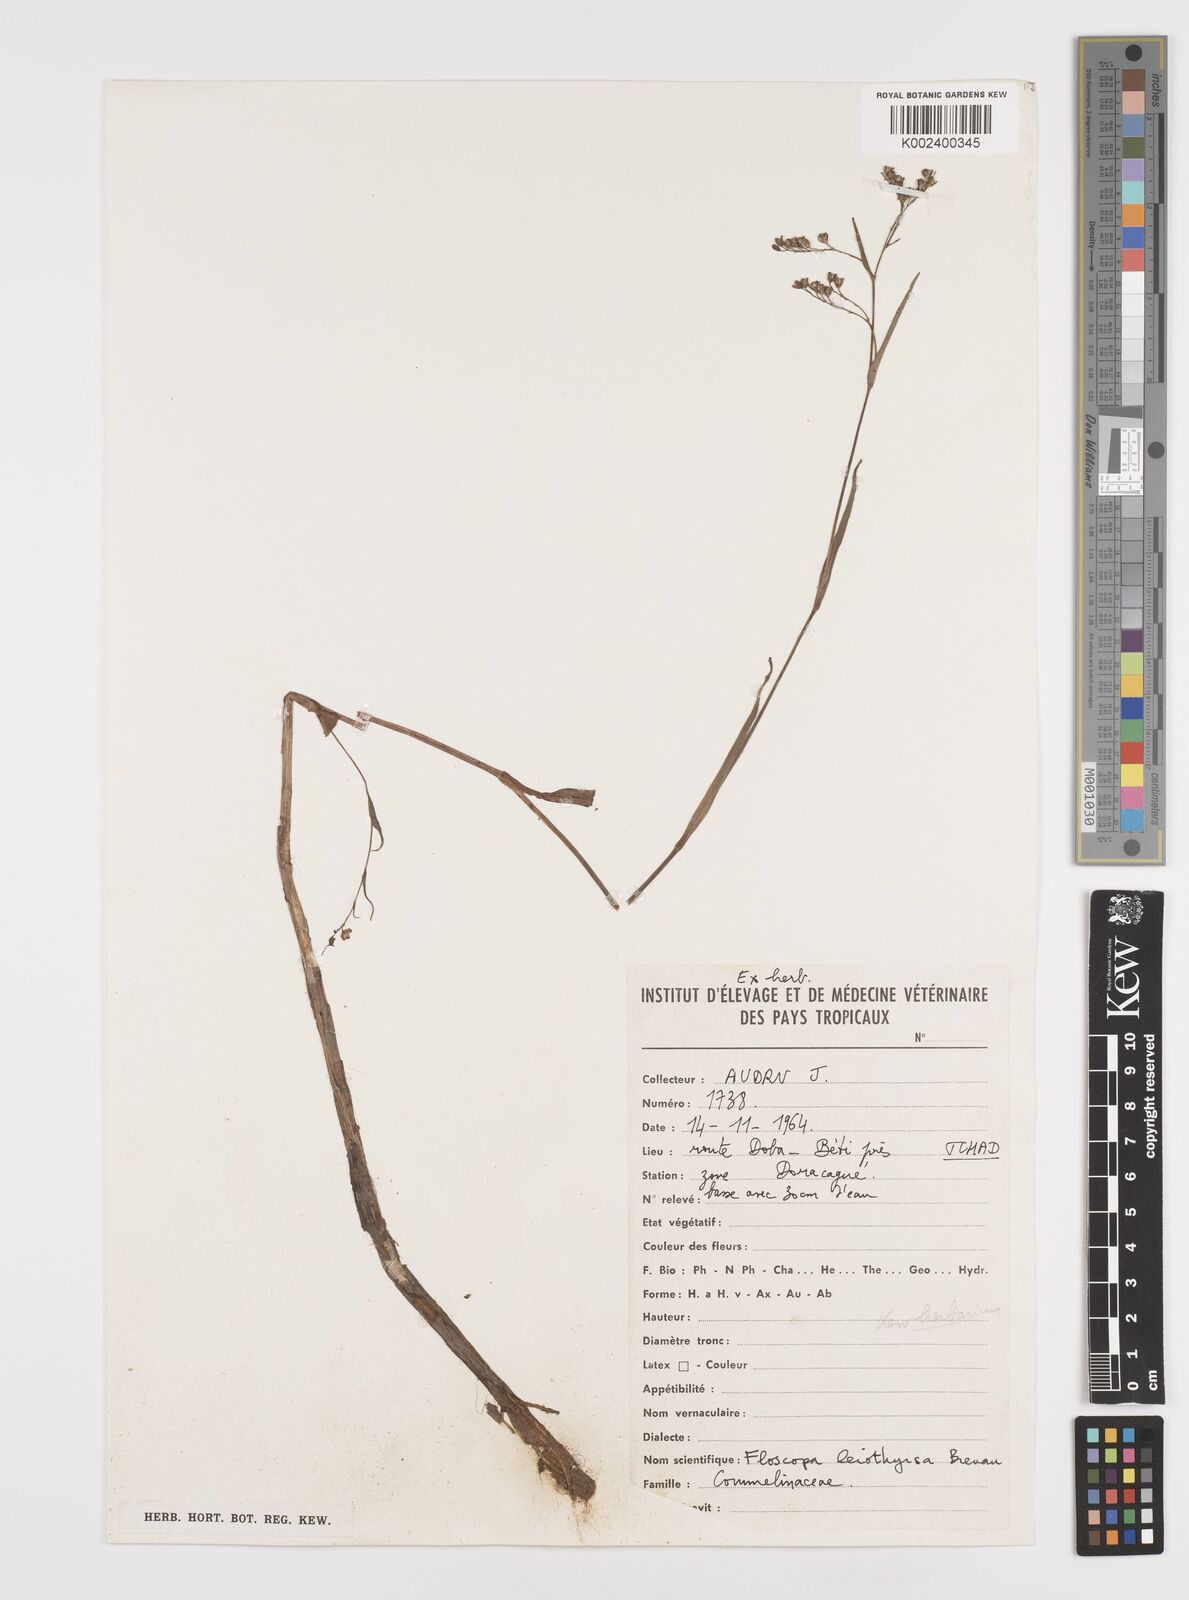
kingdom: Plantae
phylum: Tracheophyta
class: Liliopsida
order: Commelinales
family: Commelinaceae
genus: Floscopa
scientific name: Floscopa leiothyrsa
